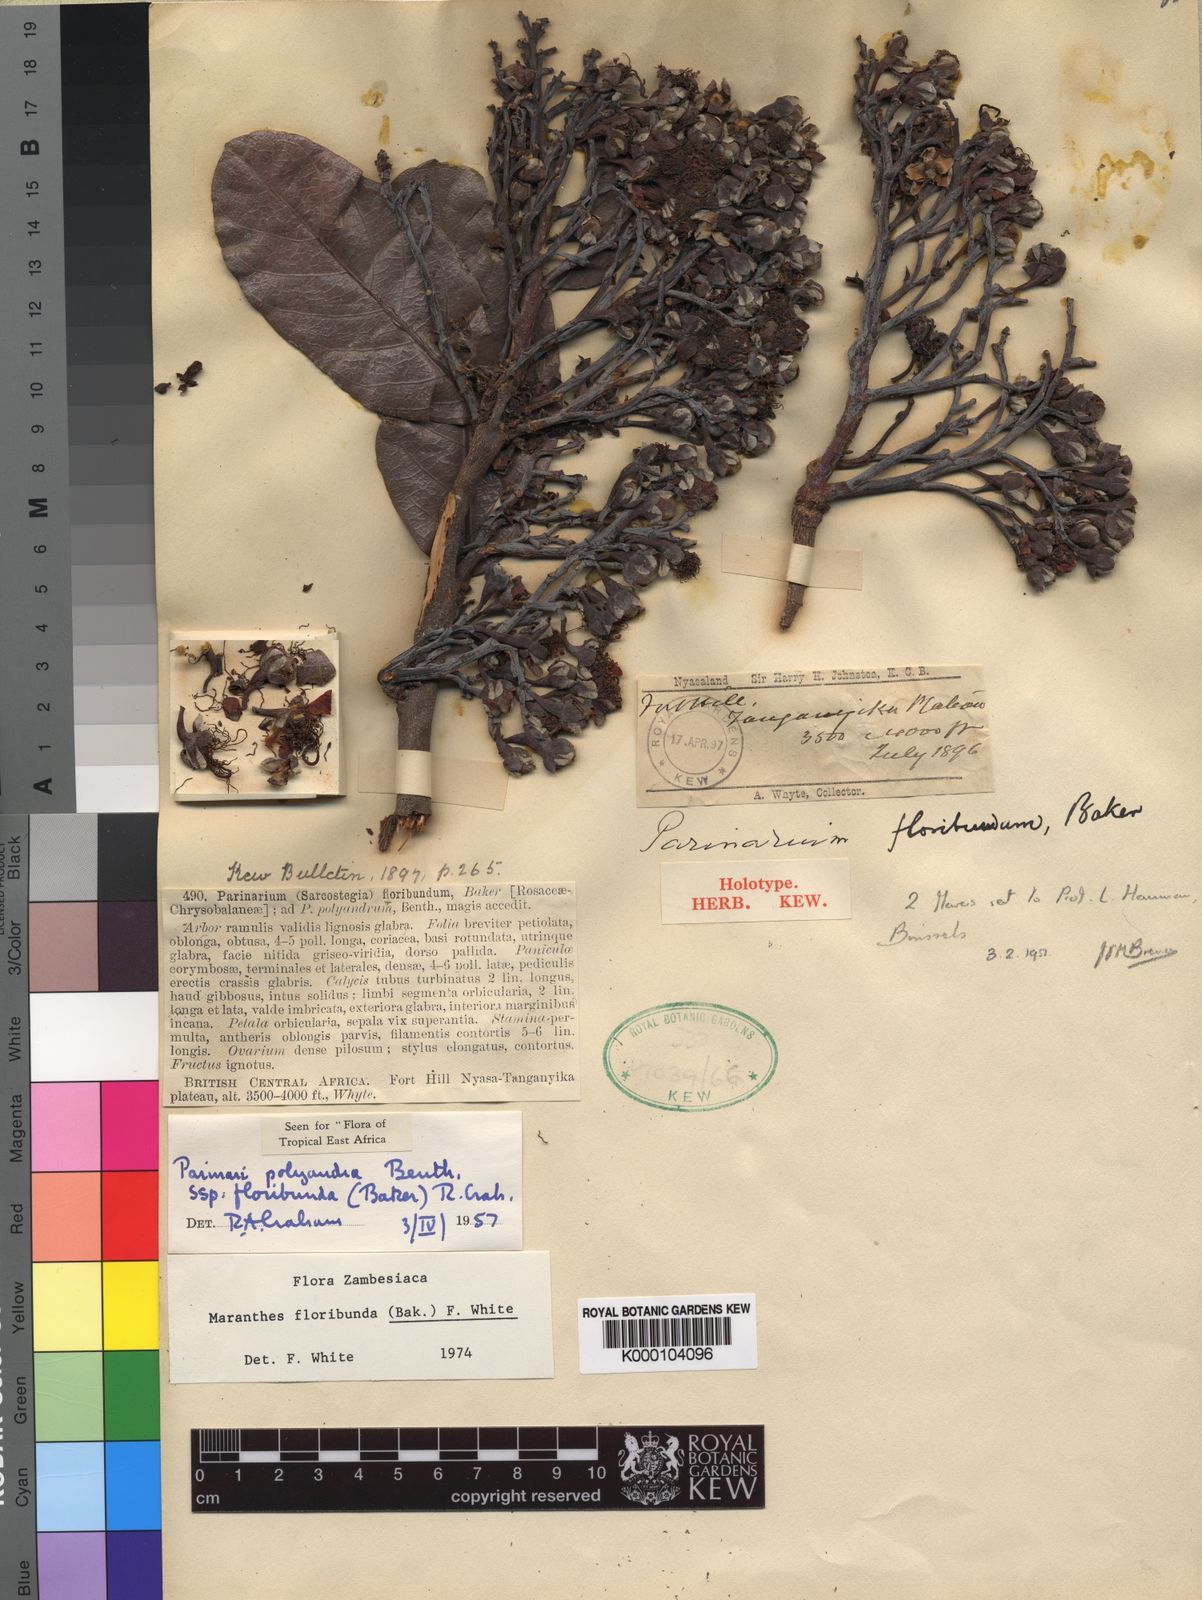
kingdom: Plantae
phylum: Tracheophyta
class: Magnoliopsida
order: Malpighiales
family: Chrysobalanaceae
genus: Maranthes
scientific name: Maranthes floribunda
